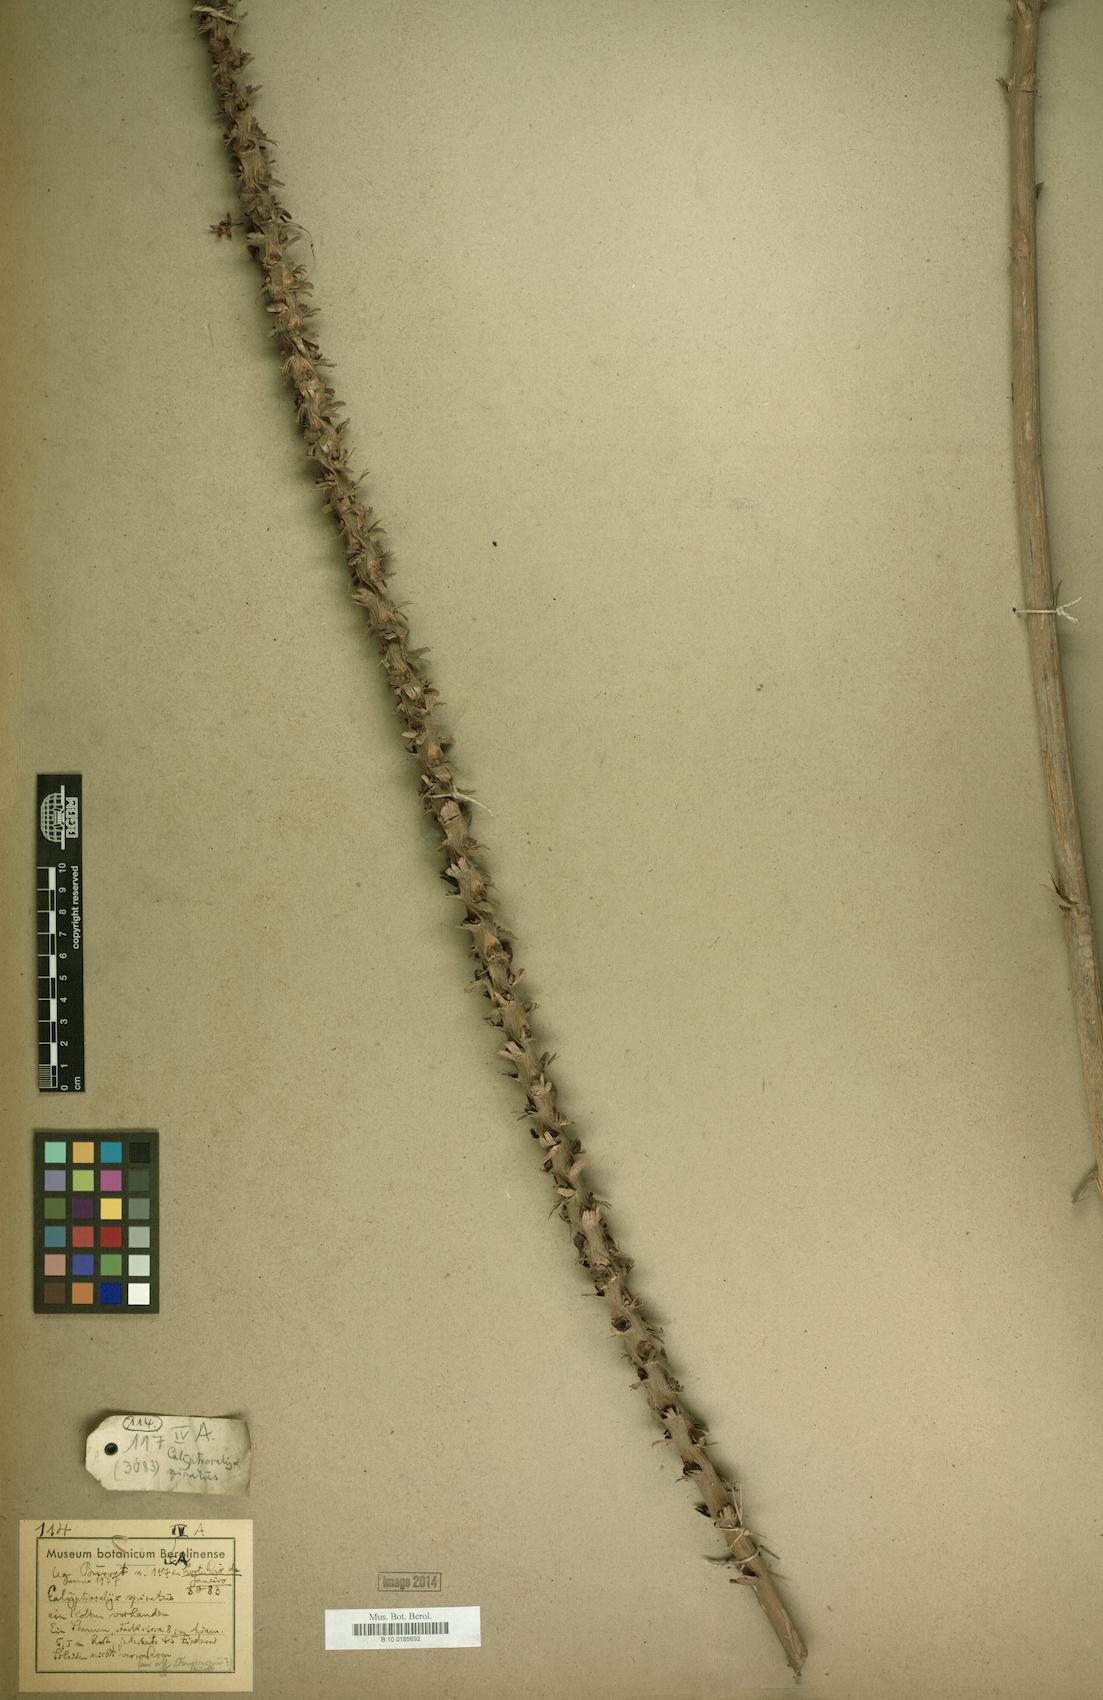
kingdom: Plantae
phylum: Tracheophyta
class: Liliopsida
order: Arecales
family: Arecaceae
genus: Calyptrocalyx
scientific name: Calyptrocalyx spicatus
